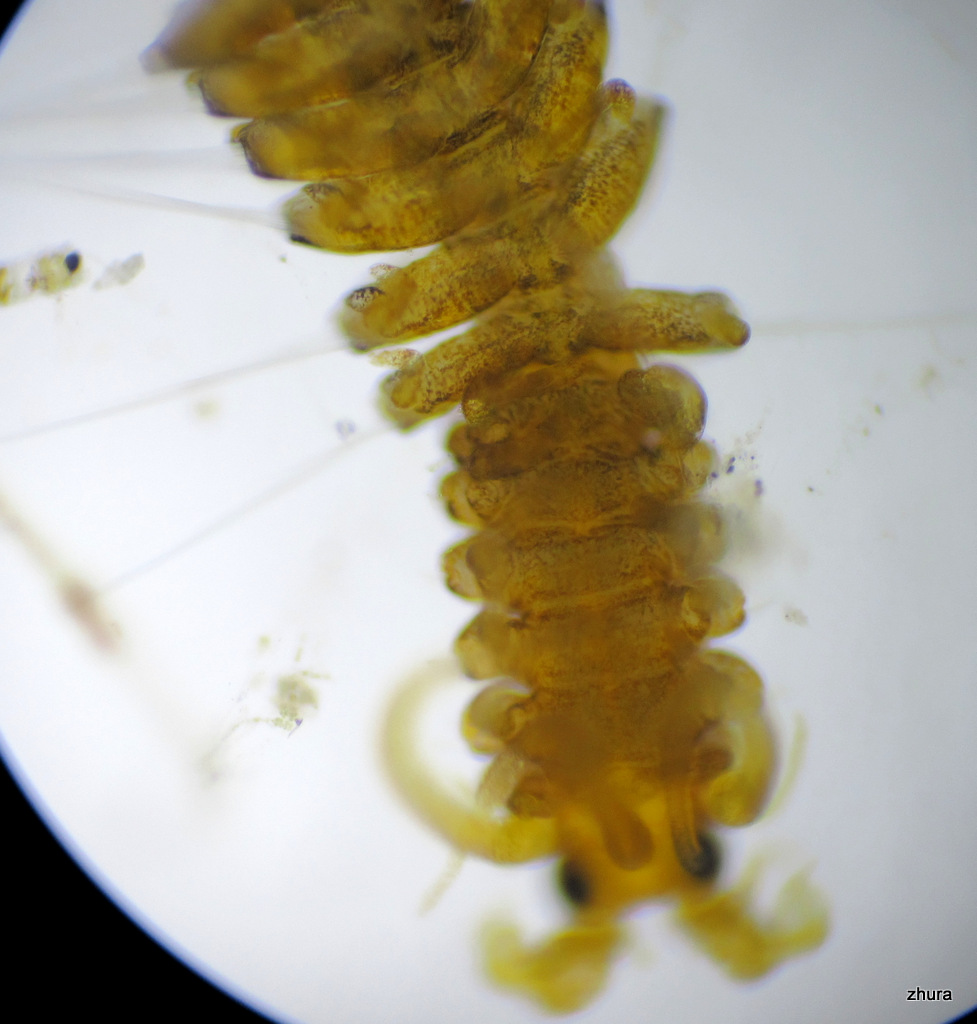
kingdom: Animalia
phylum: Annelida
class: Polychaeta
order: Phyllodocida
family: Syllidae
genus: Proceraea
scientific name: Proceraea prismatica
